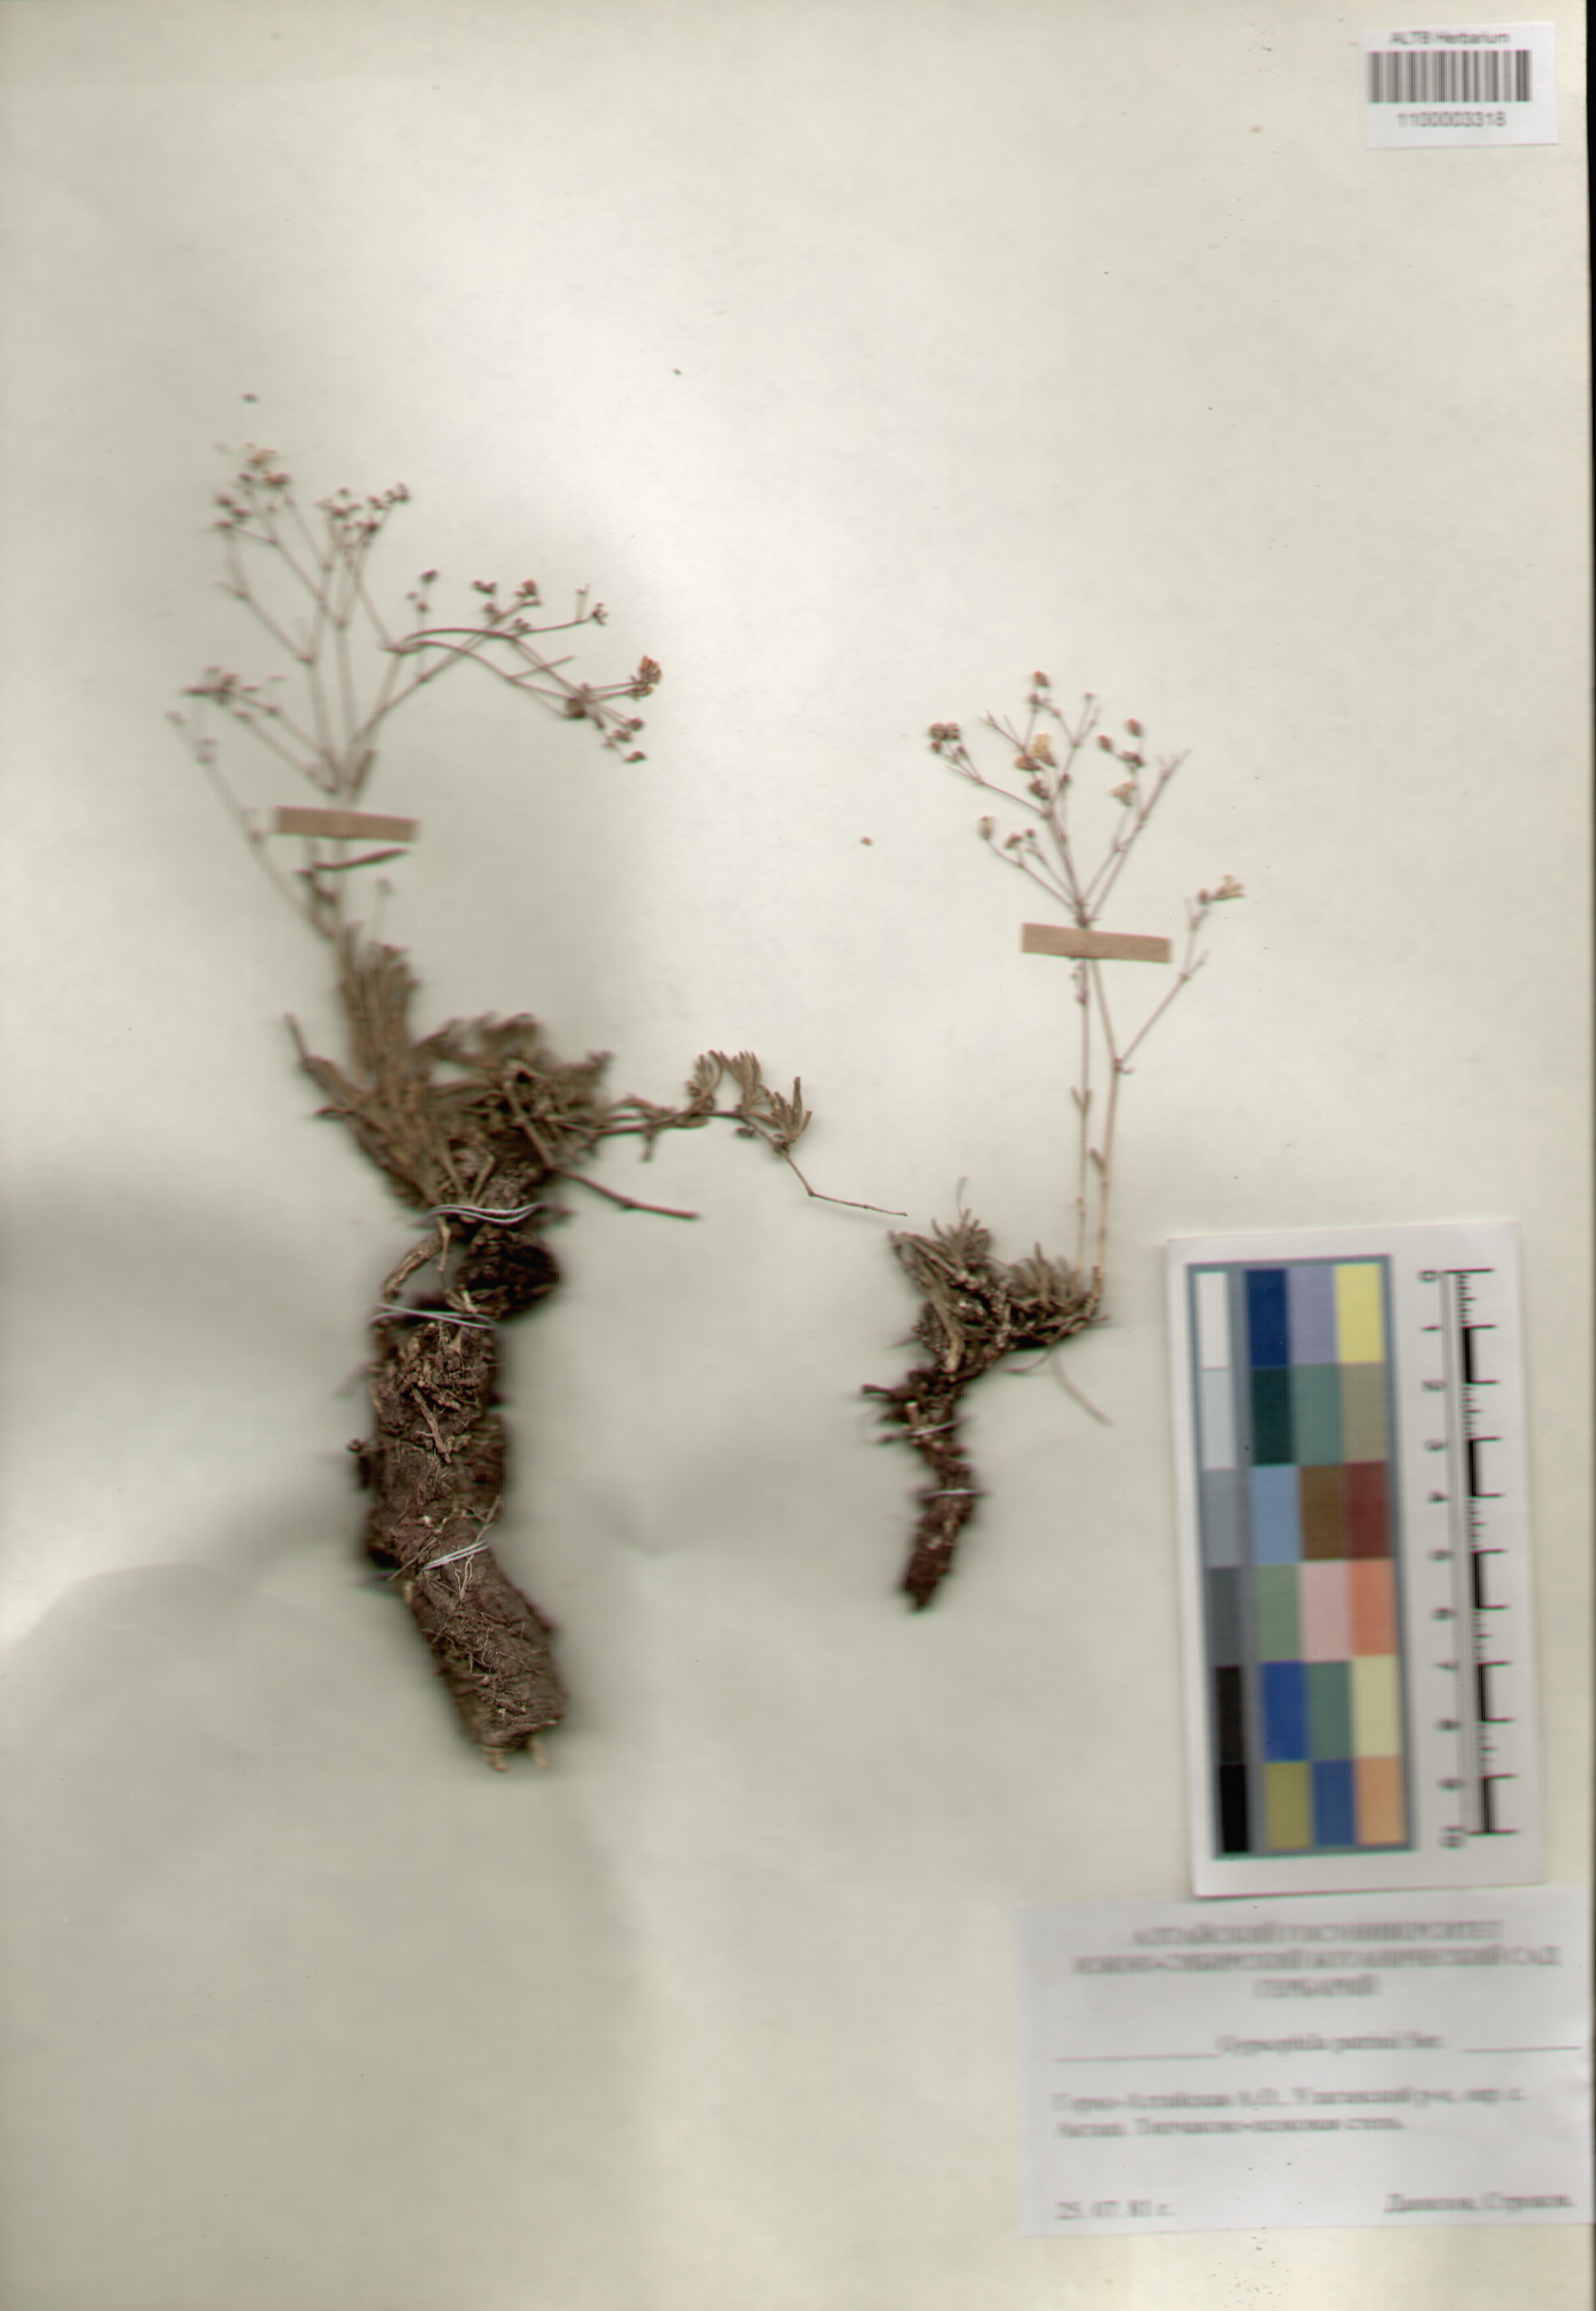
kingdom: Plantae
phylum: Tracheophyta
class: Magnoliopsida
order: Caryophyllales
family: Caryophyllaceae
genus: Gypsophila
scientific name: Gypsophila patrinii
